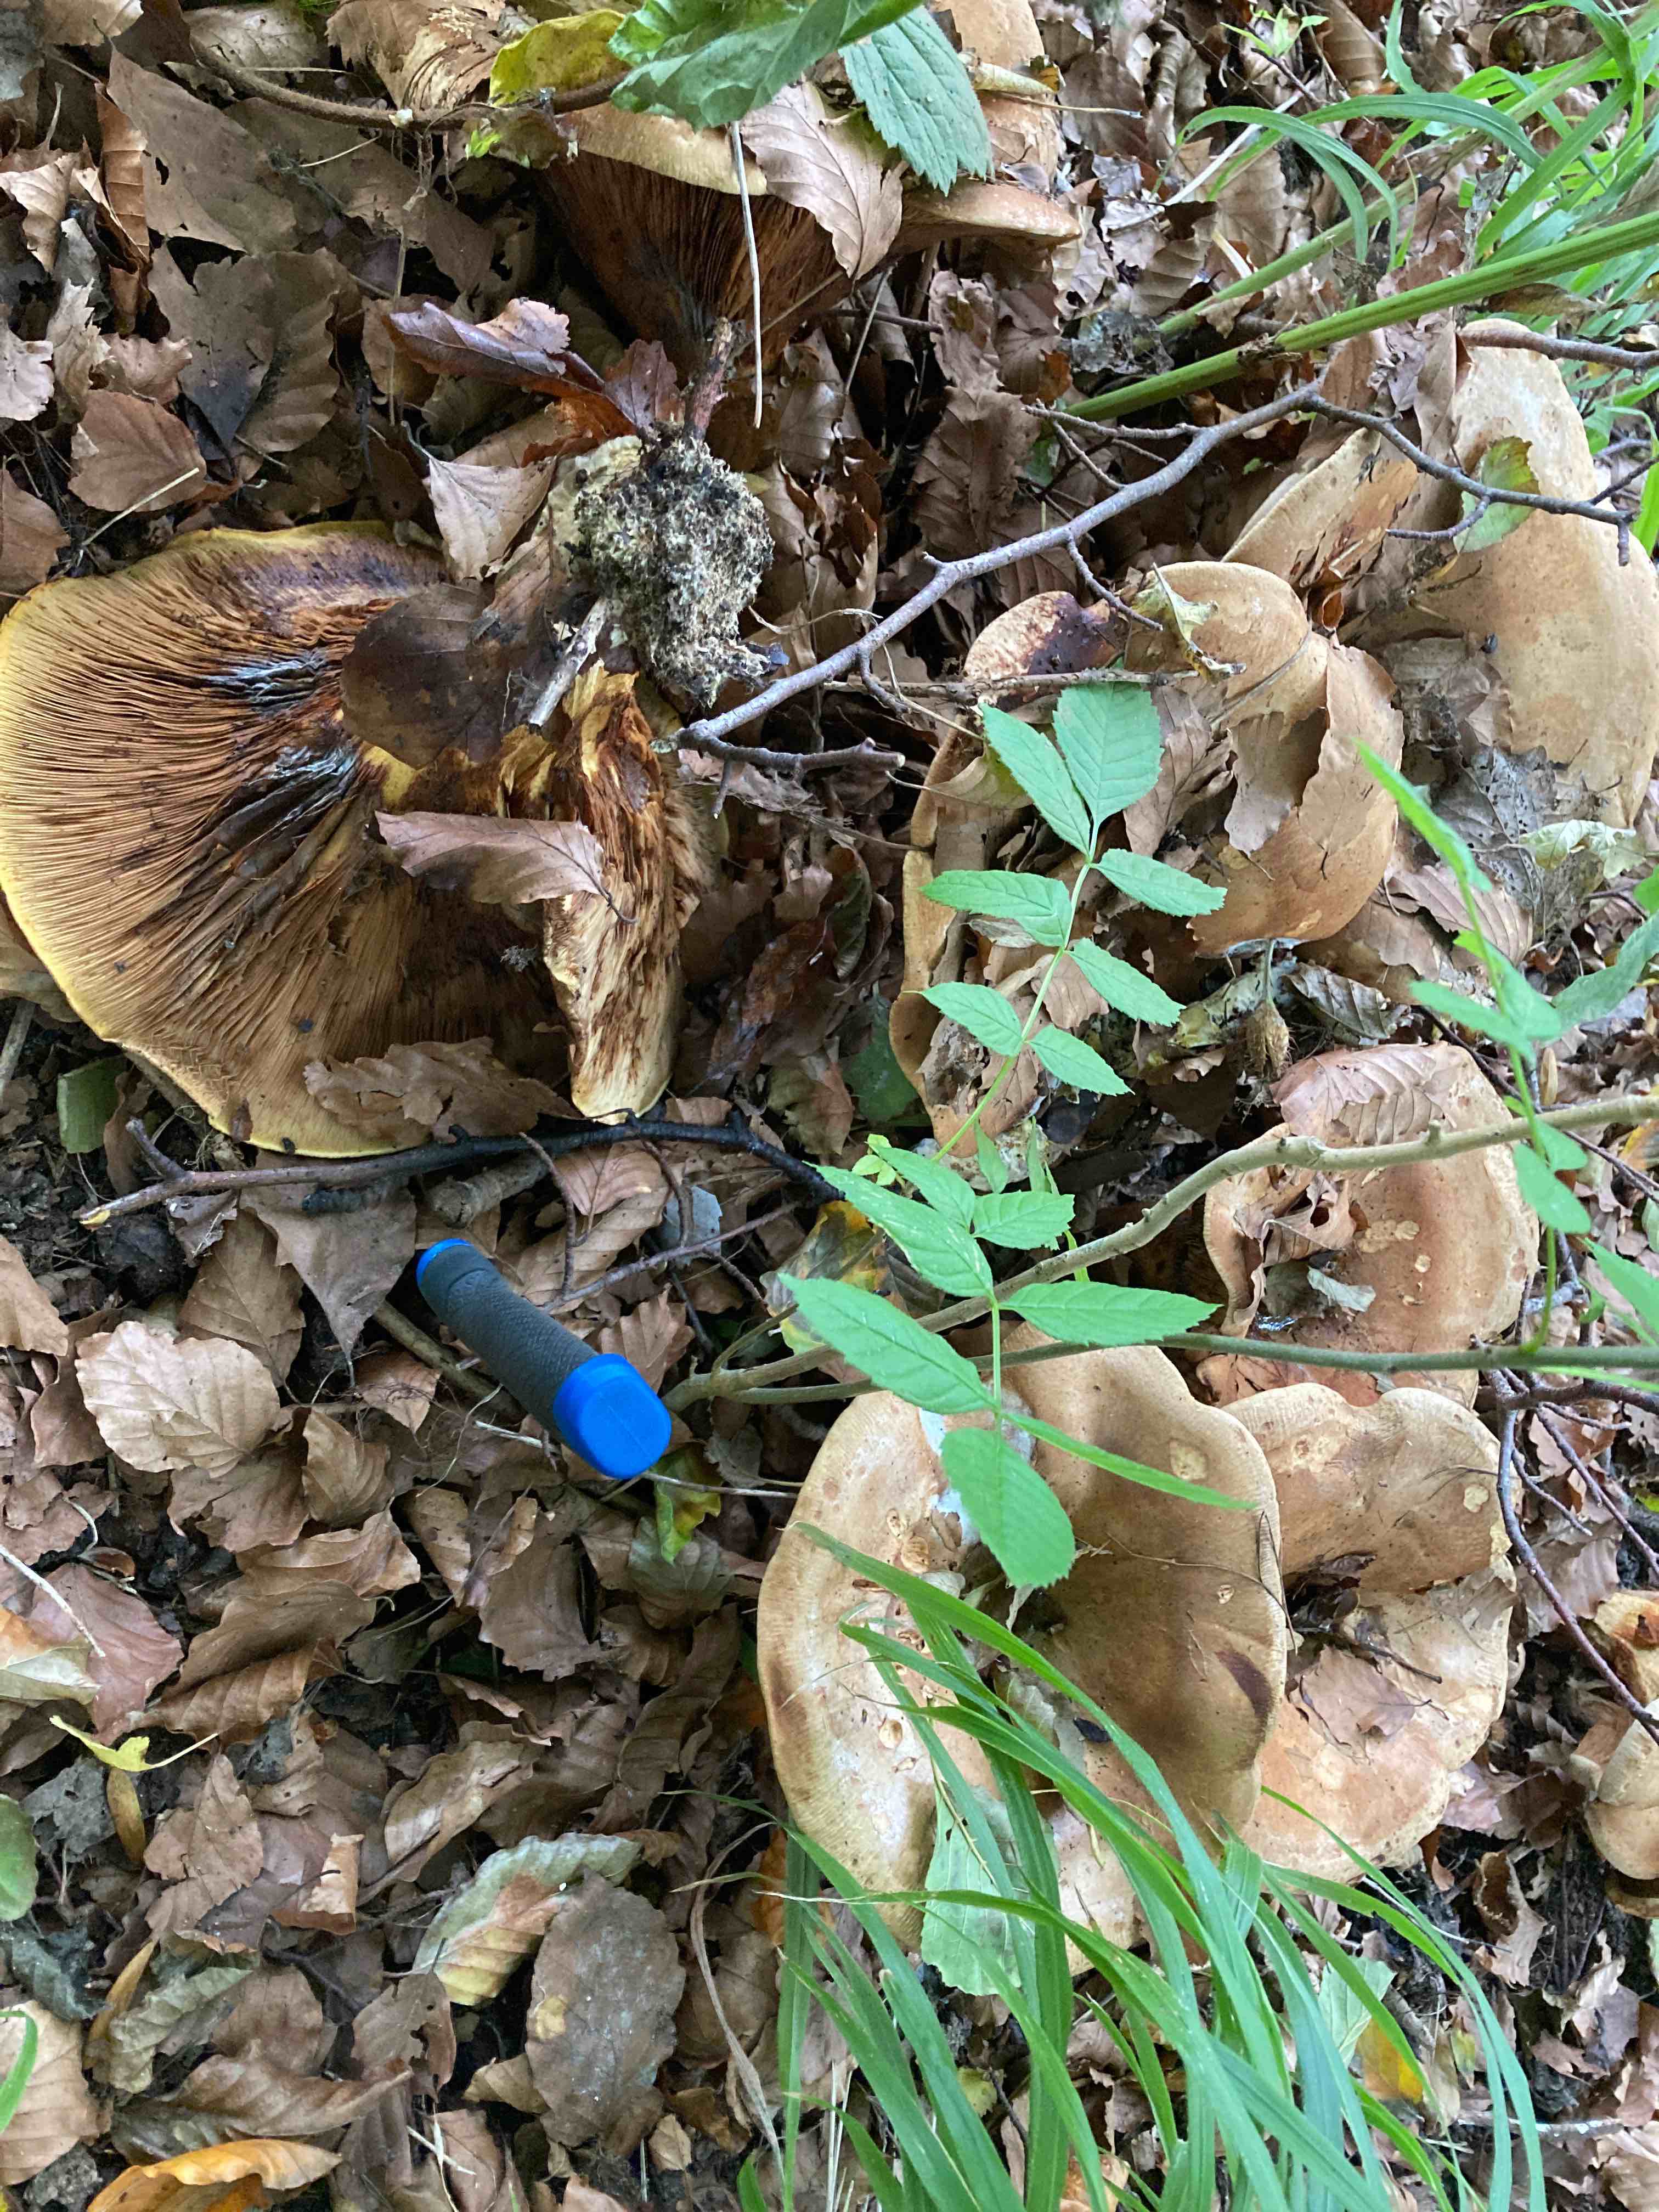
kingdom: Fungi
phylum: Basidiomycota
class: Agaricomycetes
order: Boletales
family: Paxillaceae
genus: Paxillus
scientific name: Paxillus obscurisporus
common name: mahognisporet netbladhat
